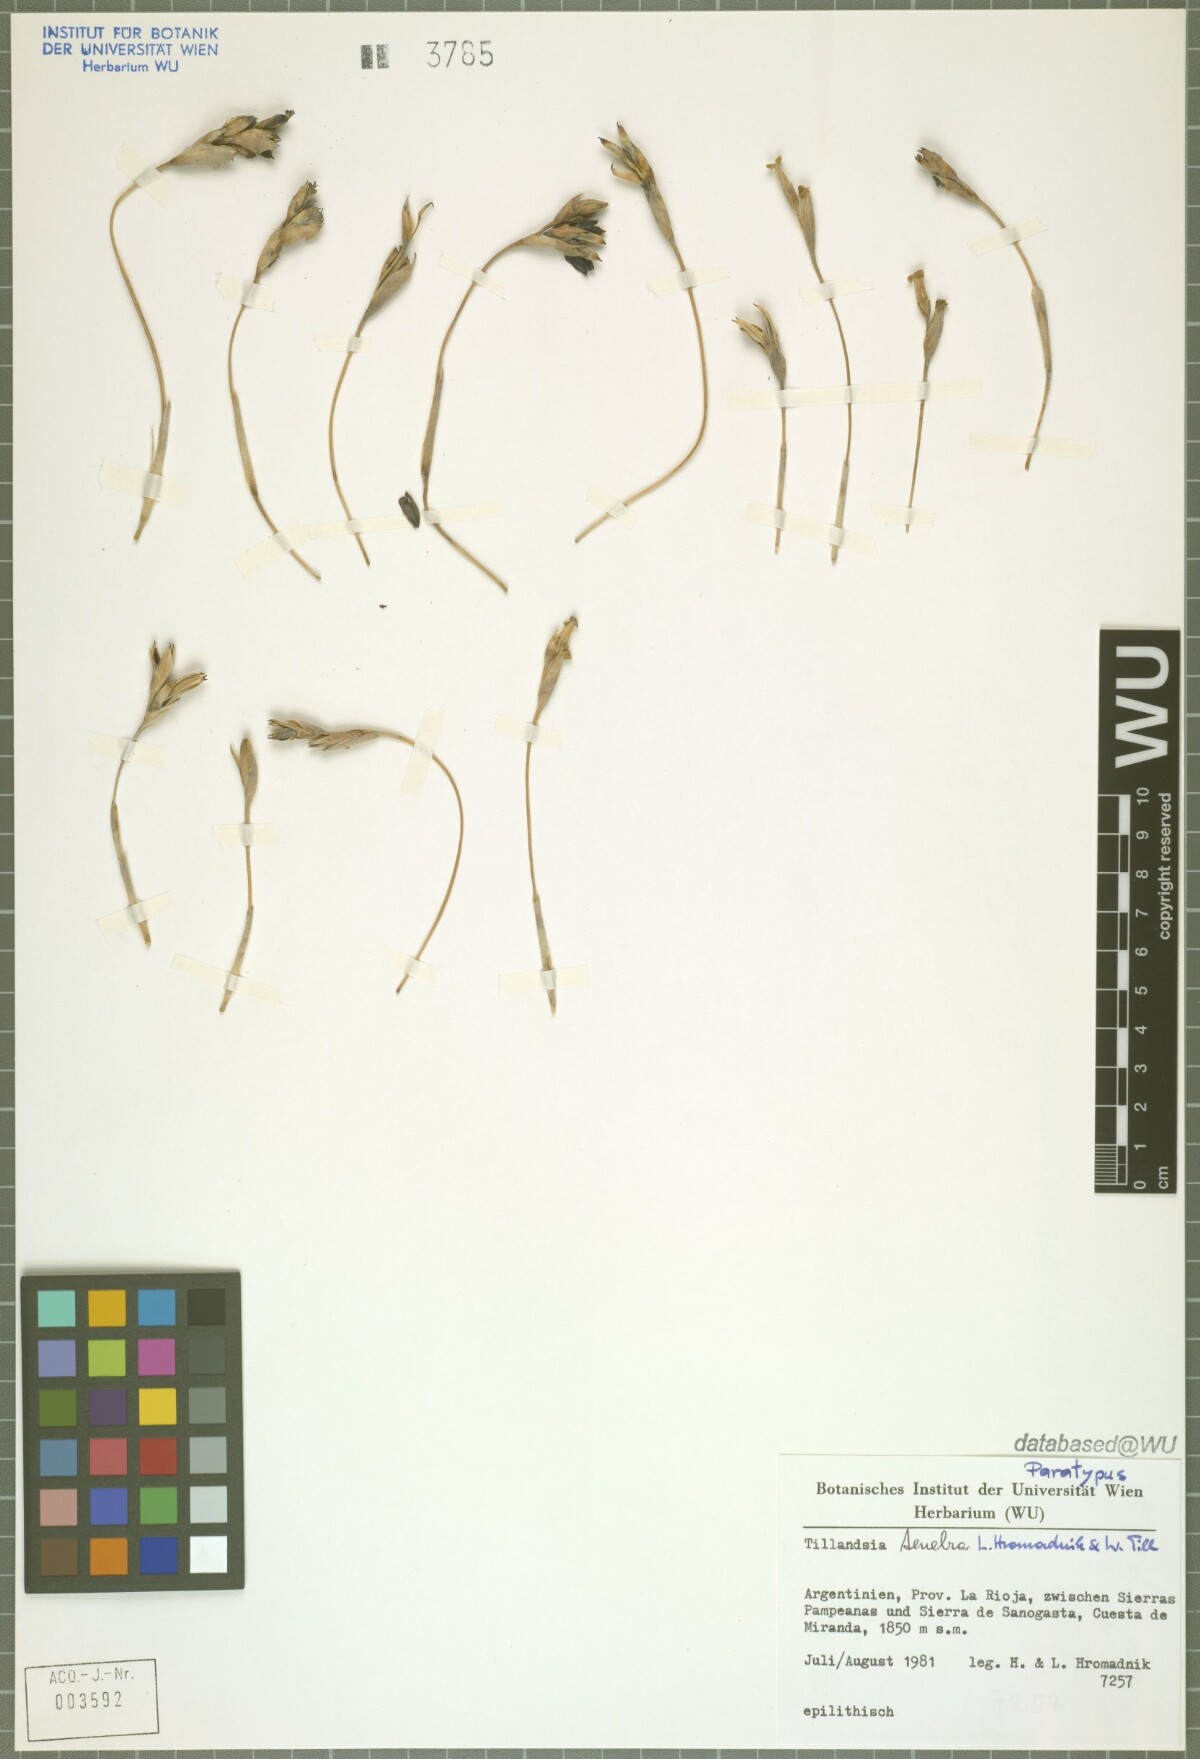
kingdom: Plantae
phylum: Tracheophyta
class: Liliopsida
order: Poales
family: Bromeliaceae
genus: Tillandsia
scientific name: Tillandsia tenebra
